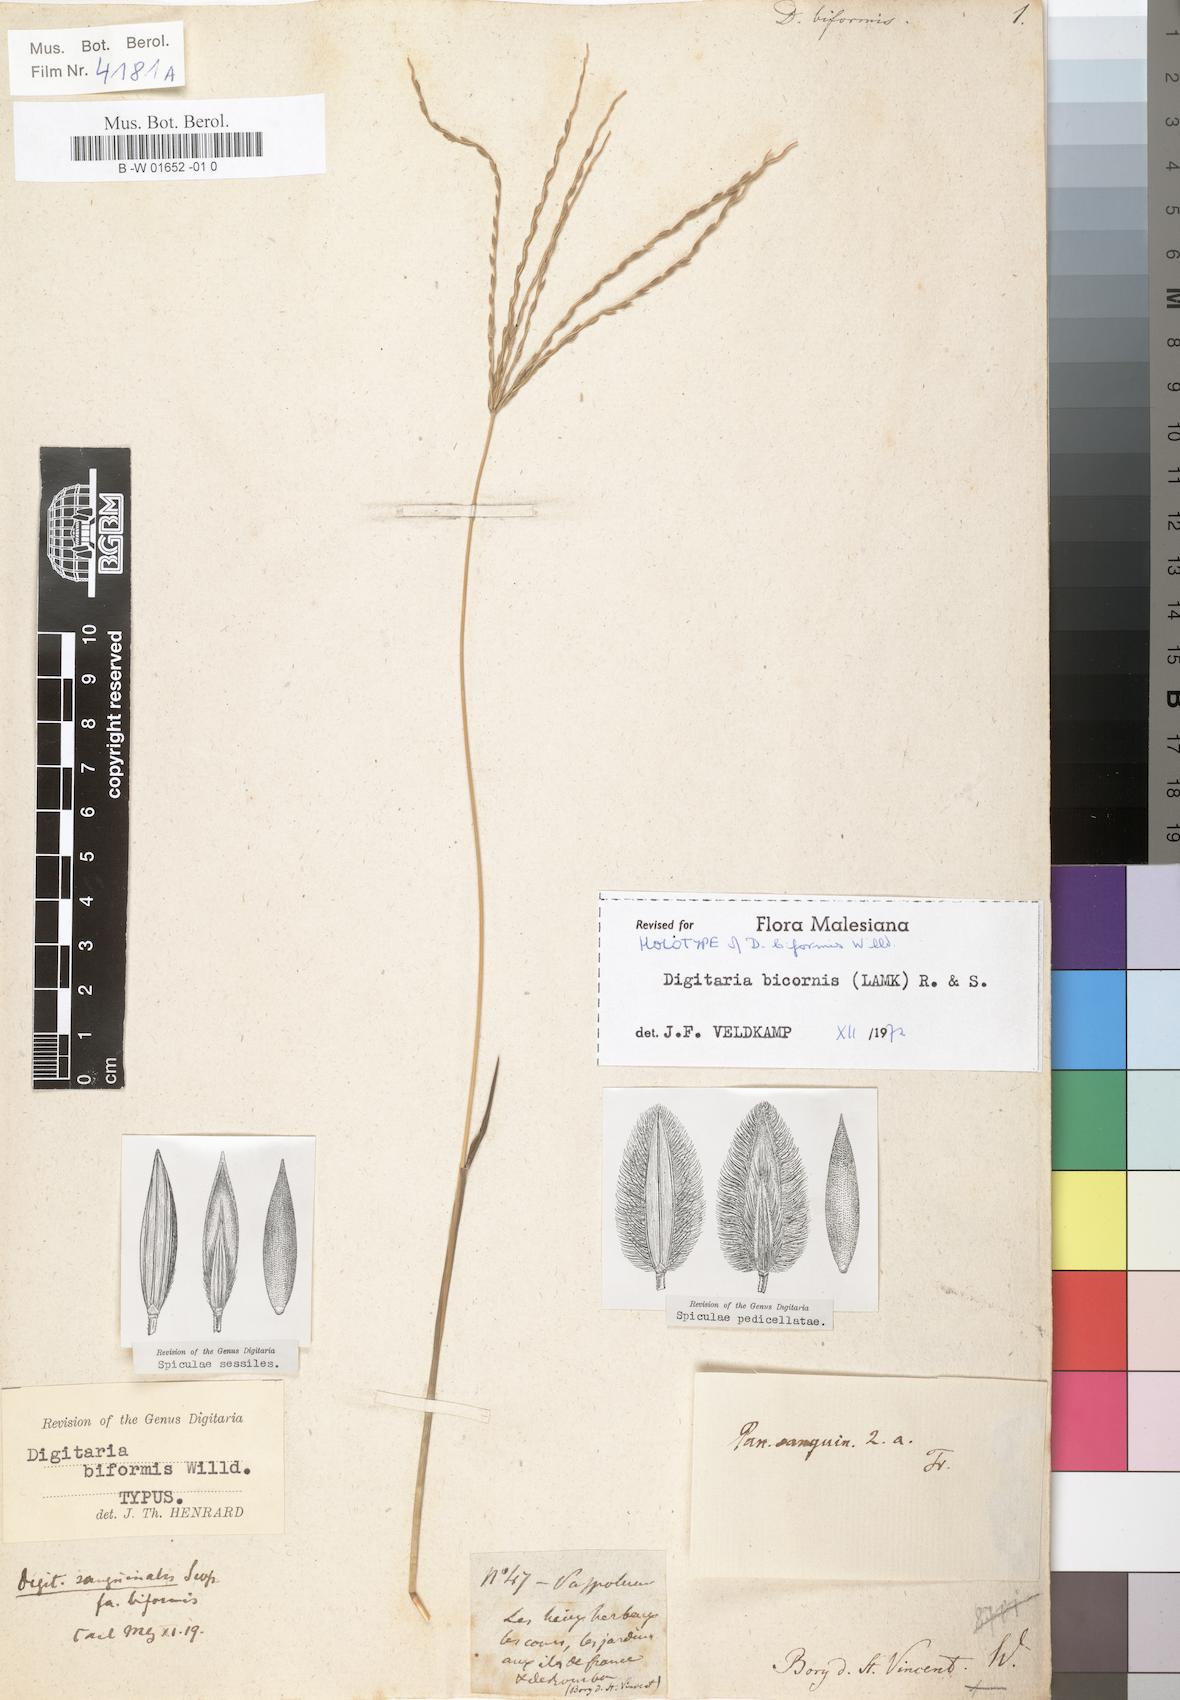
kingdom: Plantae
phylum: Tracheophyta
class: Liliopsida
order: Poales
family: Poaceae
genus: Digitaria
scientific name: Digitaria bicornis
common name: Asian crabgrass
